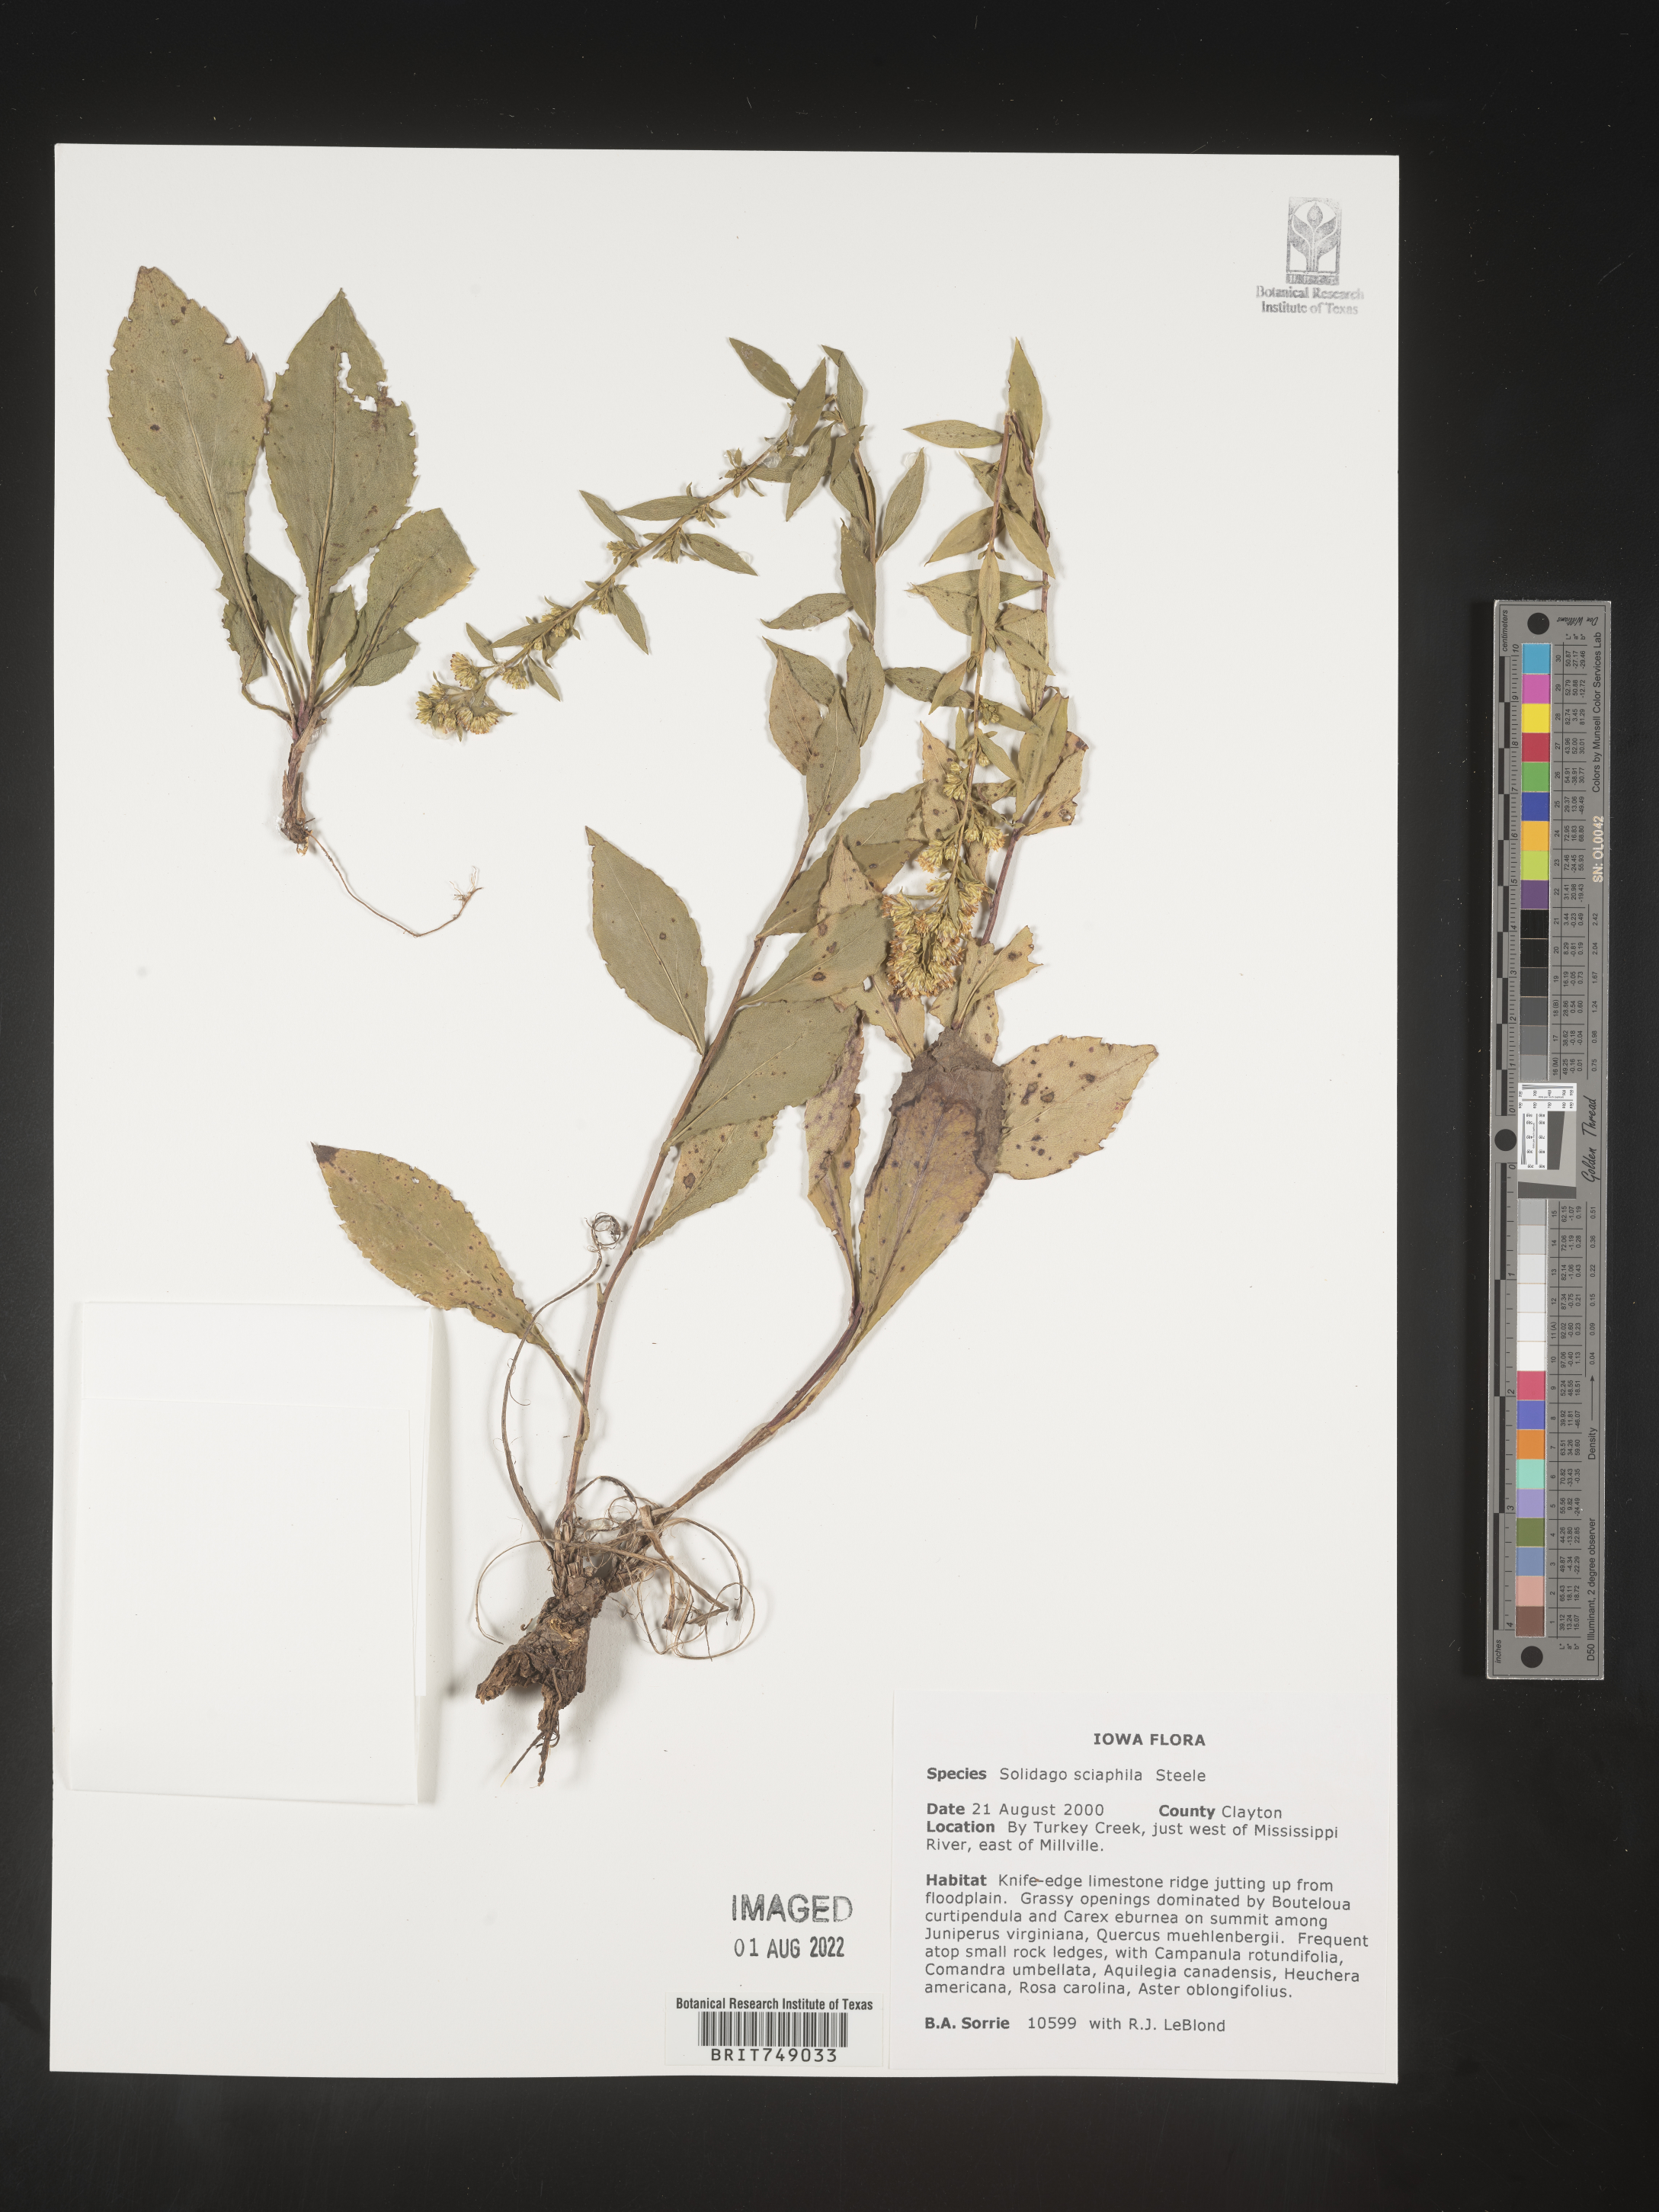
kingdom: Plantae
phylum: Tracheophyta
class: Magnoliopsida
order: Asterales
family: Asteraceae
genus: Solidago
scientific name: Solidago sciaphila
